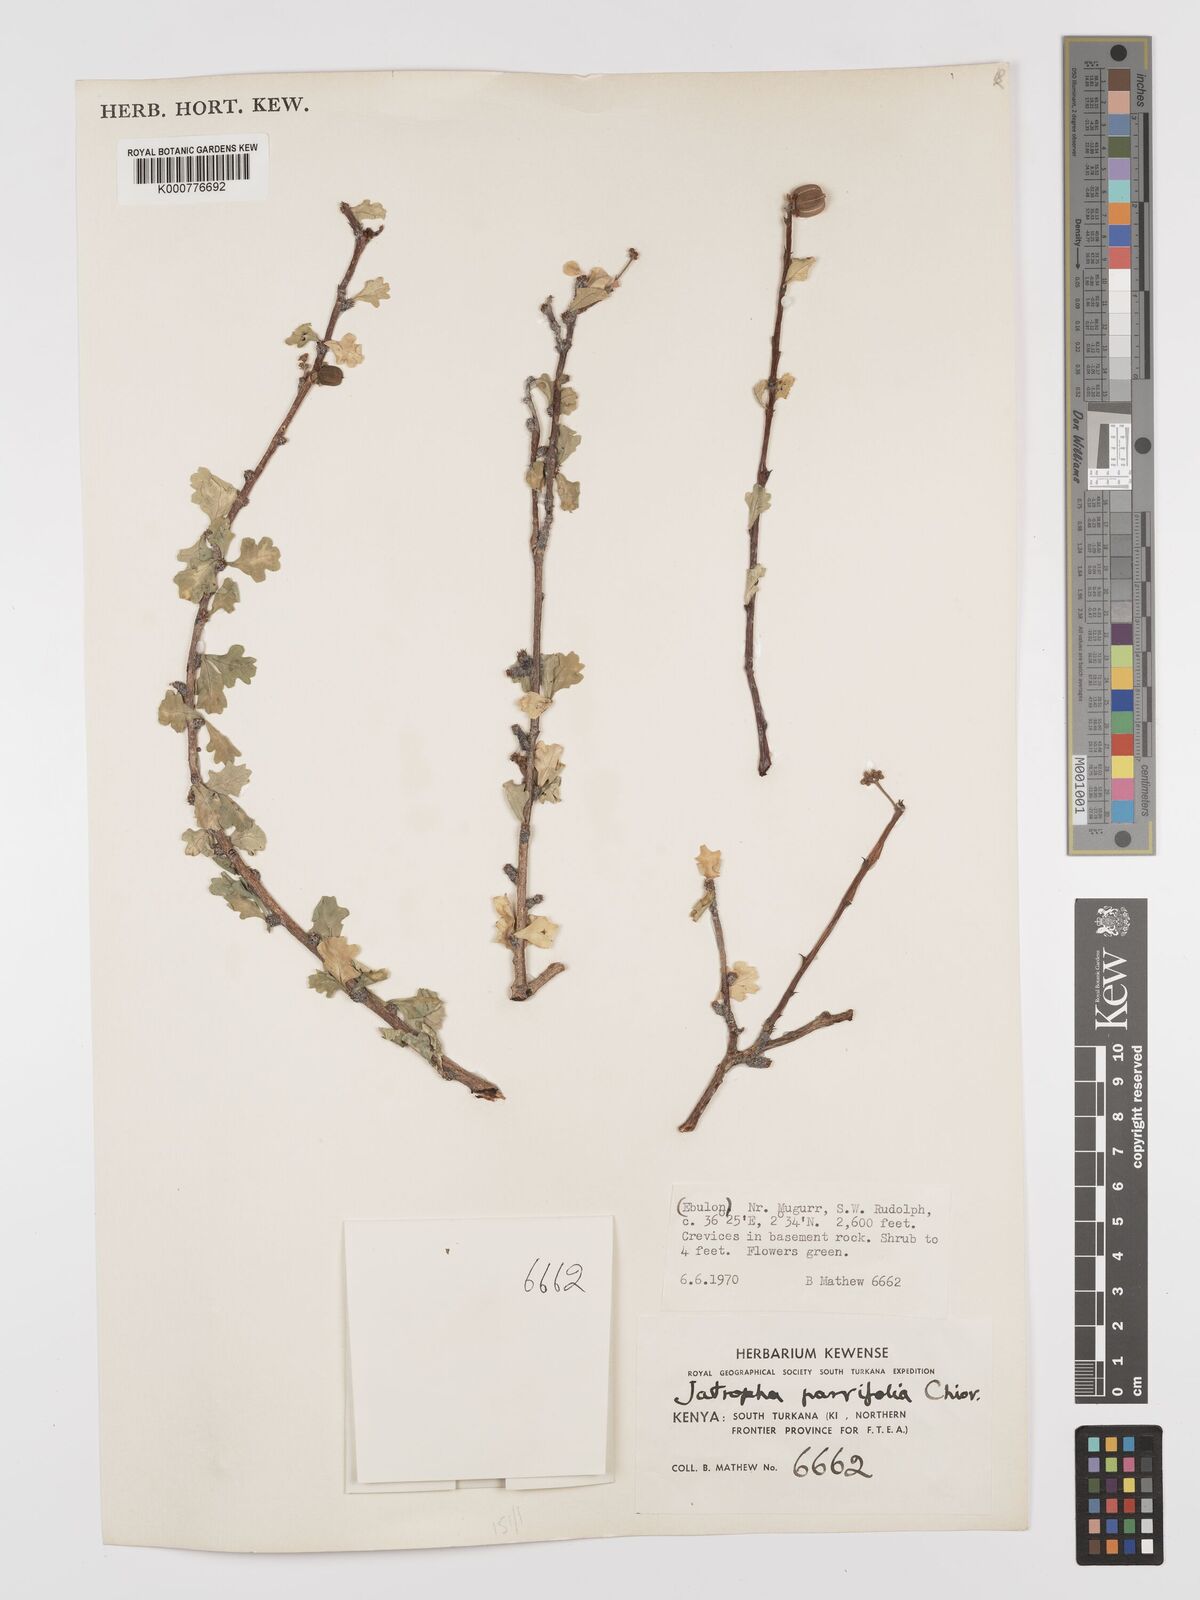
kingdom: Plantae
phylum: Tracheophyta
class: Magnoliopsida
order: Malpighiales
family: Euphorbiaceae
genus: Jatropha
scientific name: Jatropha rivae
